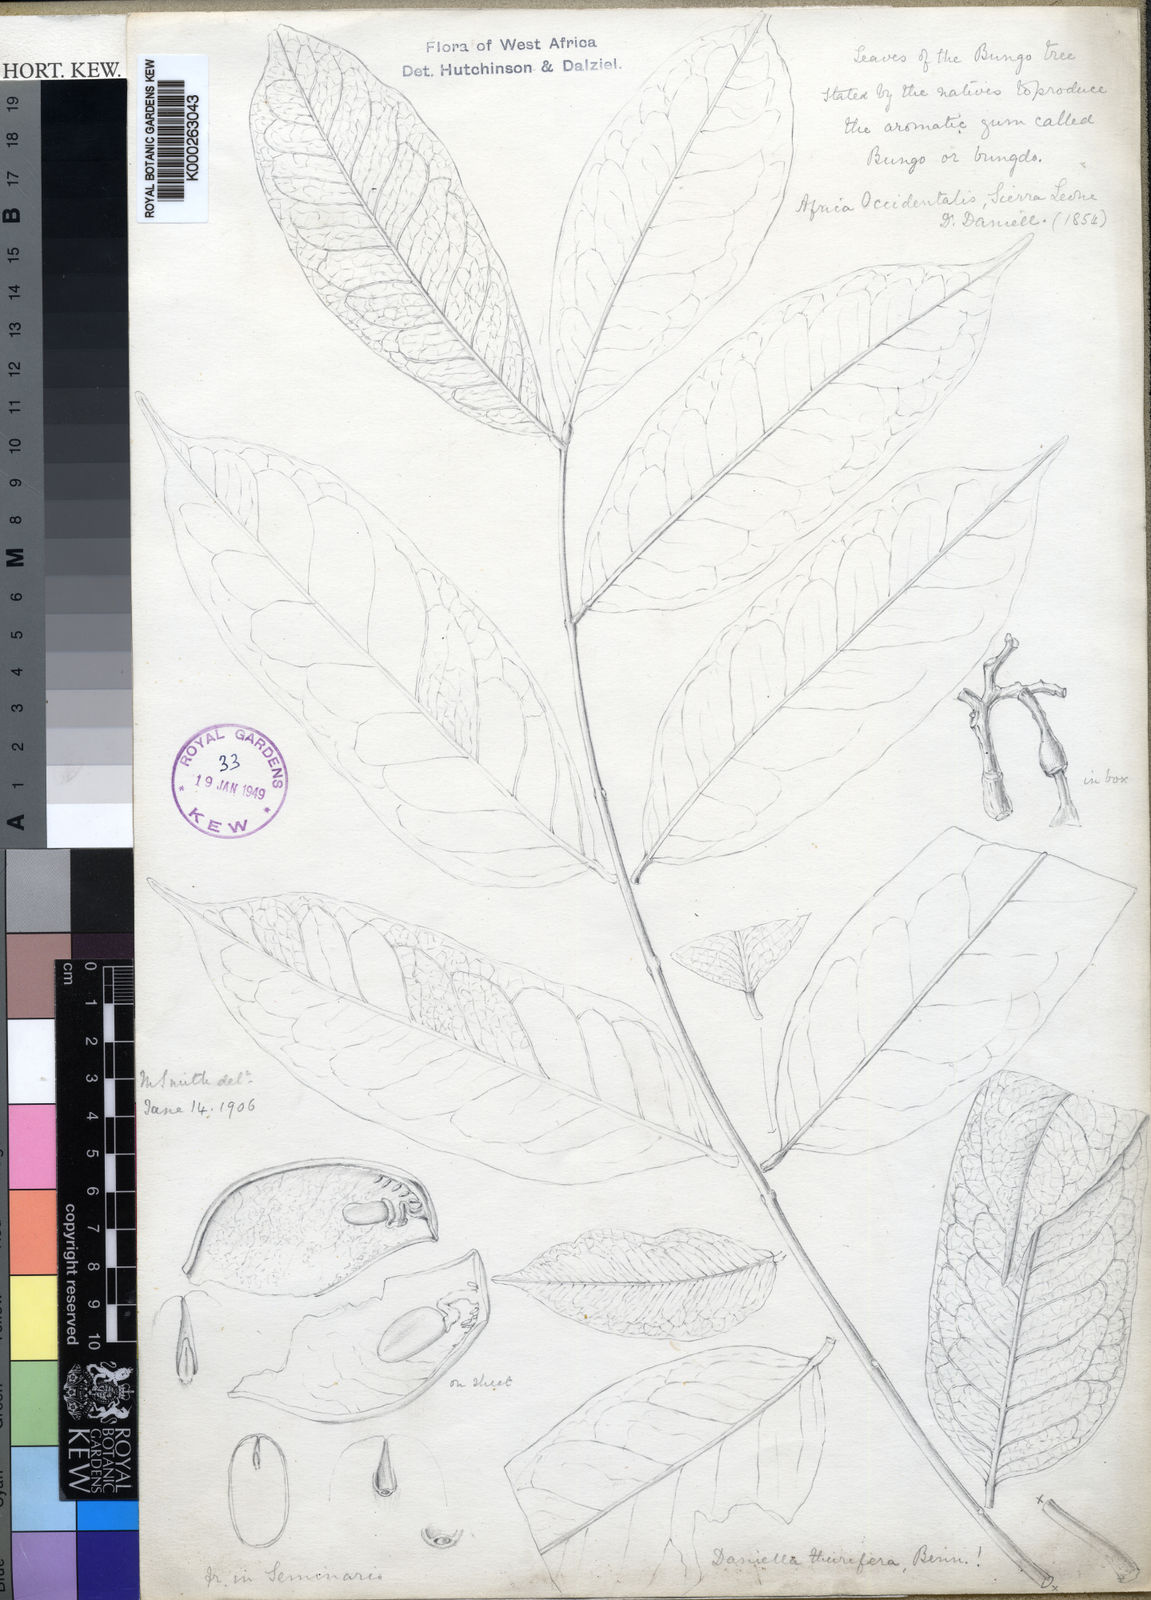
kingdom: Plantae
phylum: Tracheophyta
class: Magnoliopsida
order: Fabales
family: Fabaceae
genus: Daniellia
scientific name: Daniellia thurifera
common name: Sudan copal
